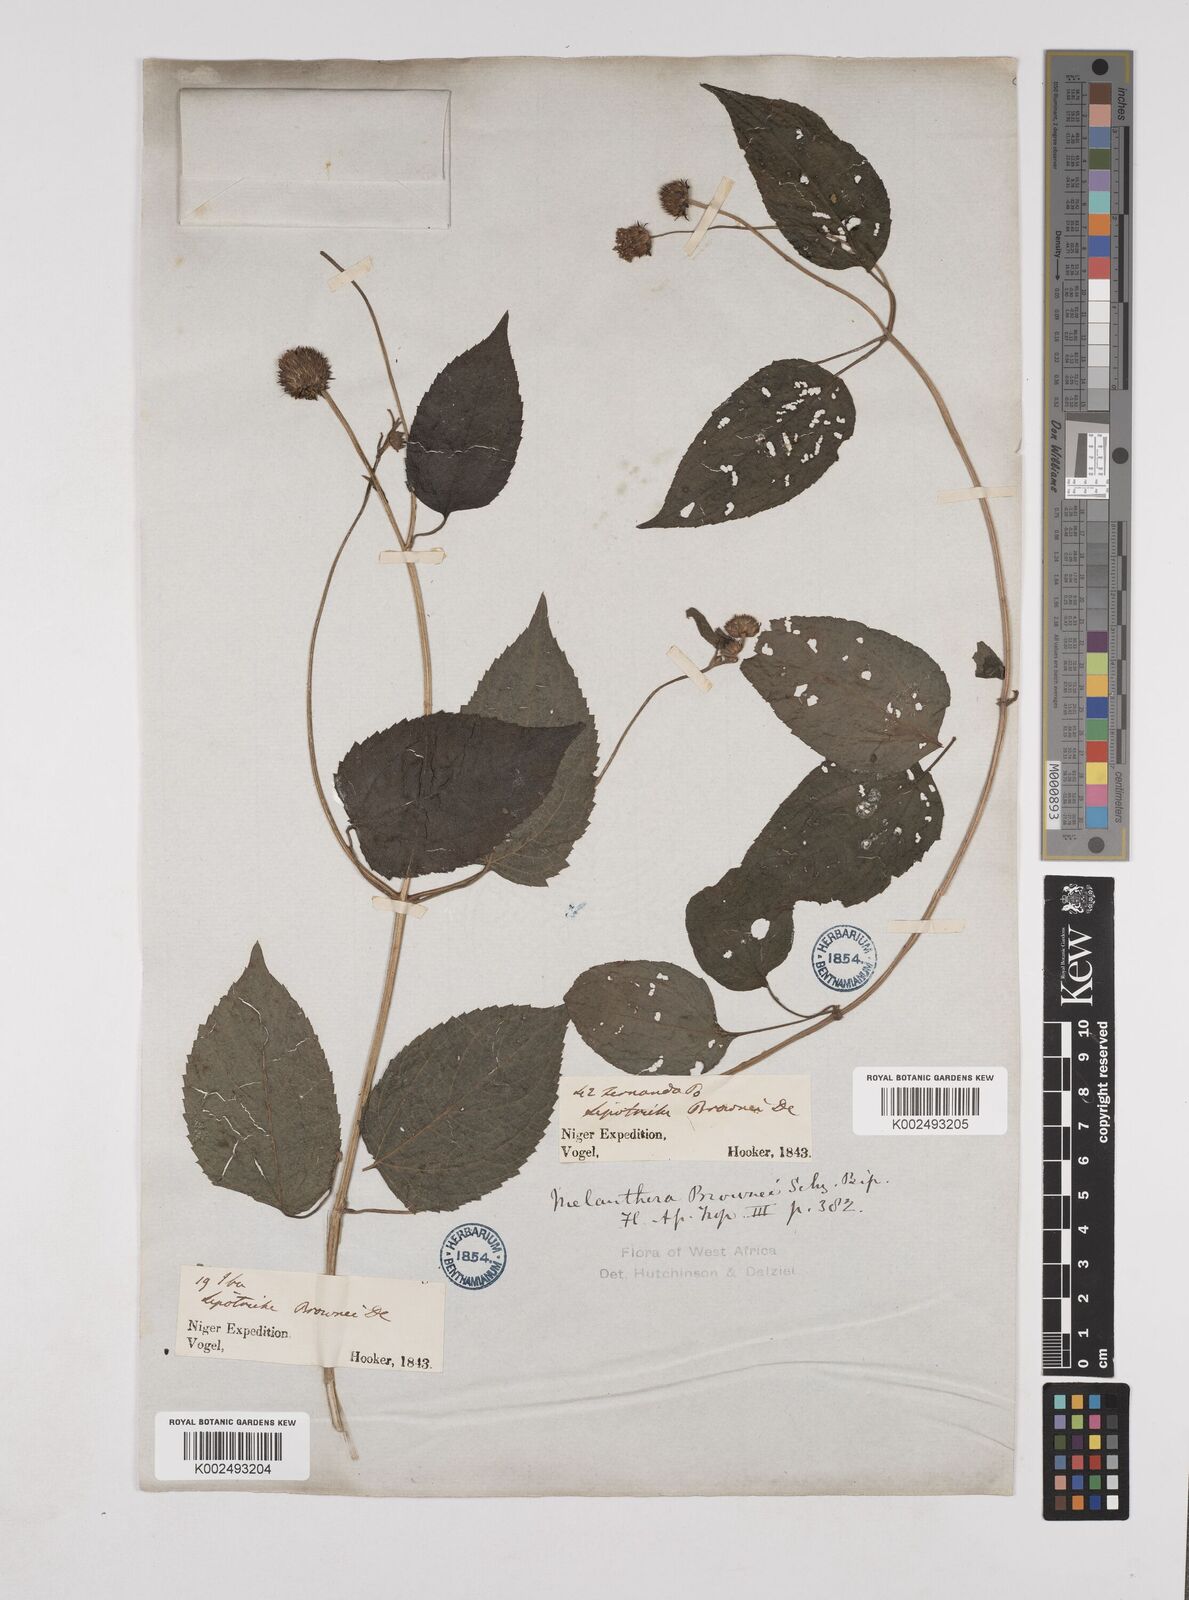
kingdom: Plantae
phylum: Tracheophyta
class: Magnoliopsida
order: Asterales
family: Asteraceae
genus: Lipotriche
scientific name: Lipotriche scandens
